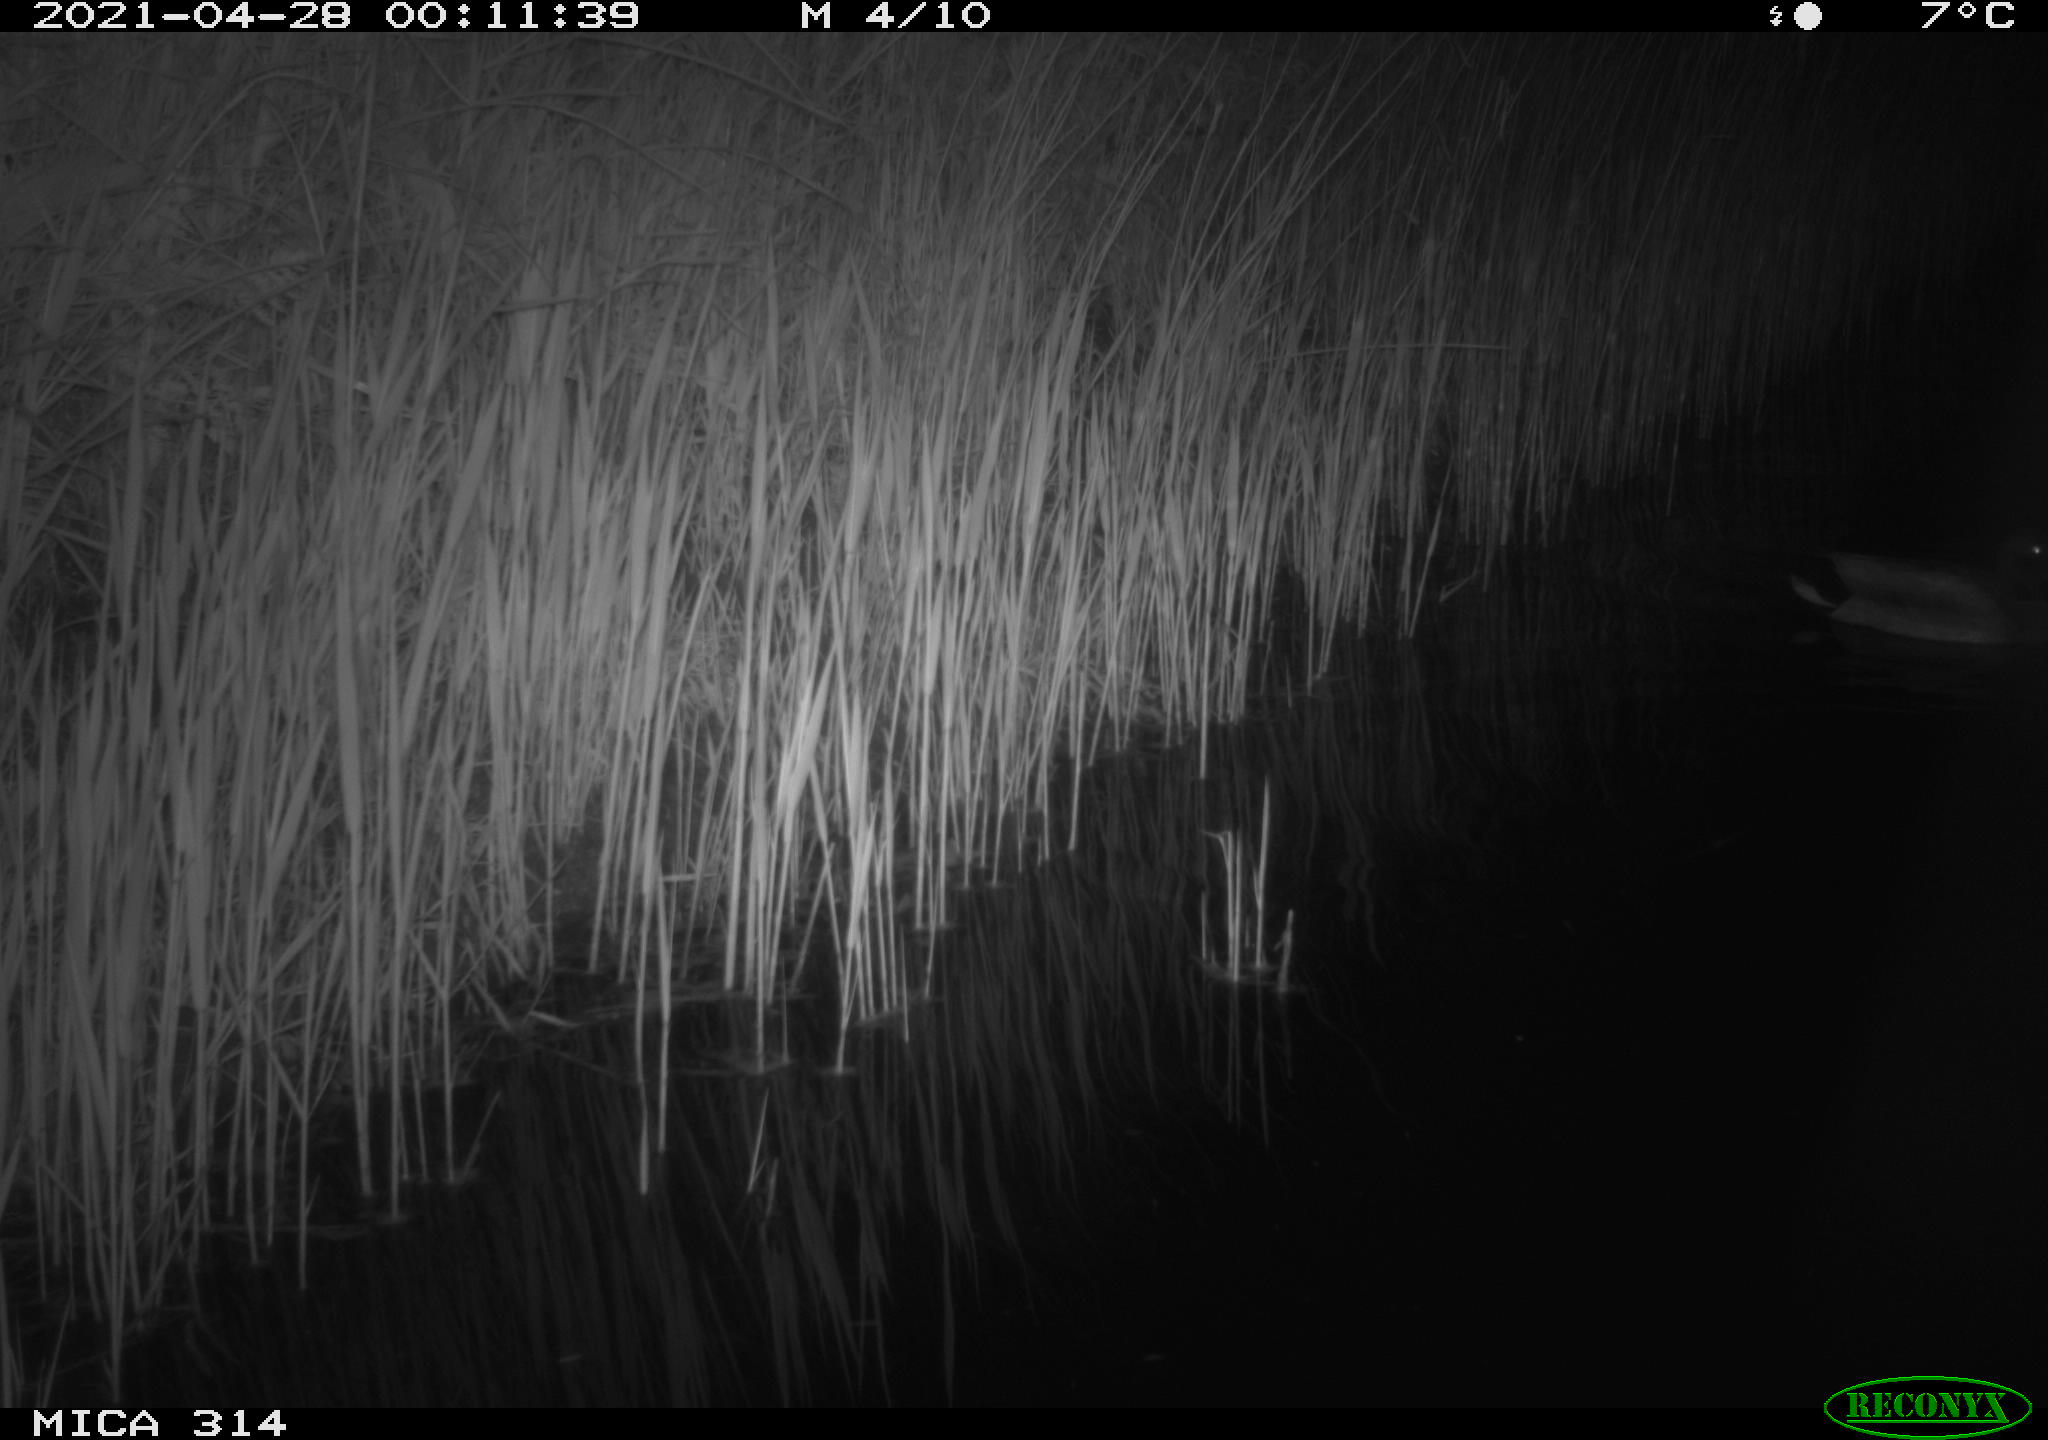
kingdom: Animalia
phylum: Chordata
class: Aves
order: Anseriformes
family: Anatidae
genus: Anas
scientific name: Anas platyrhynchos
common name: Mallard
